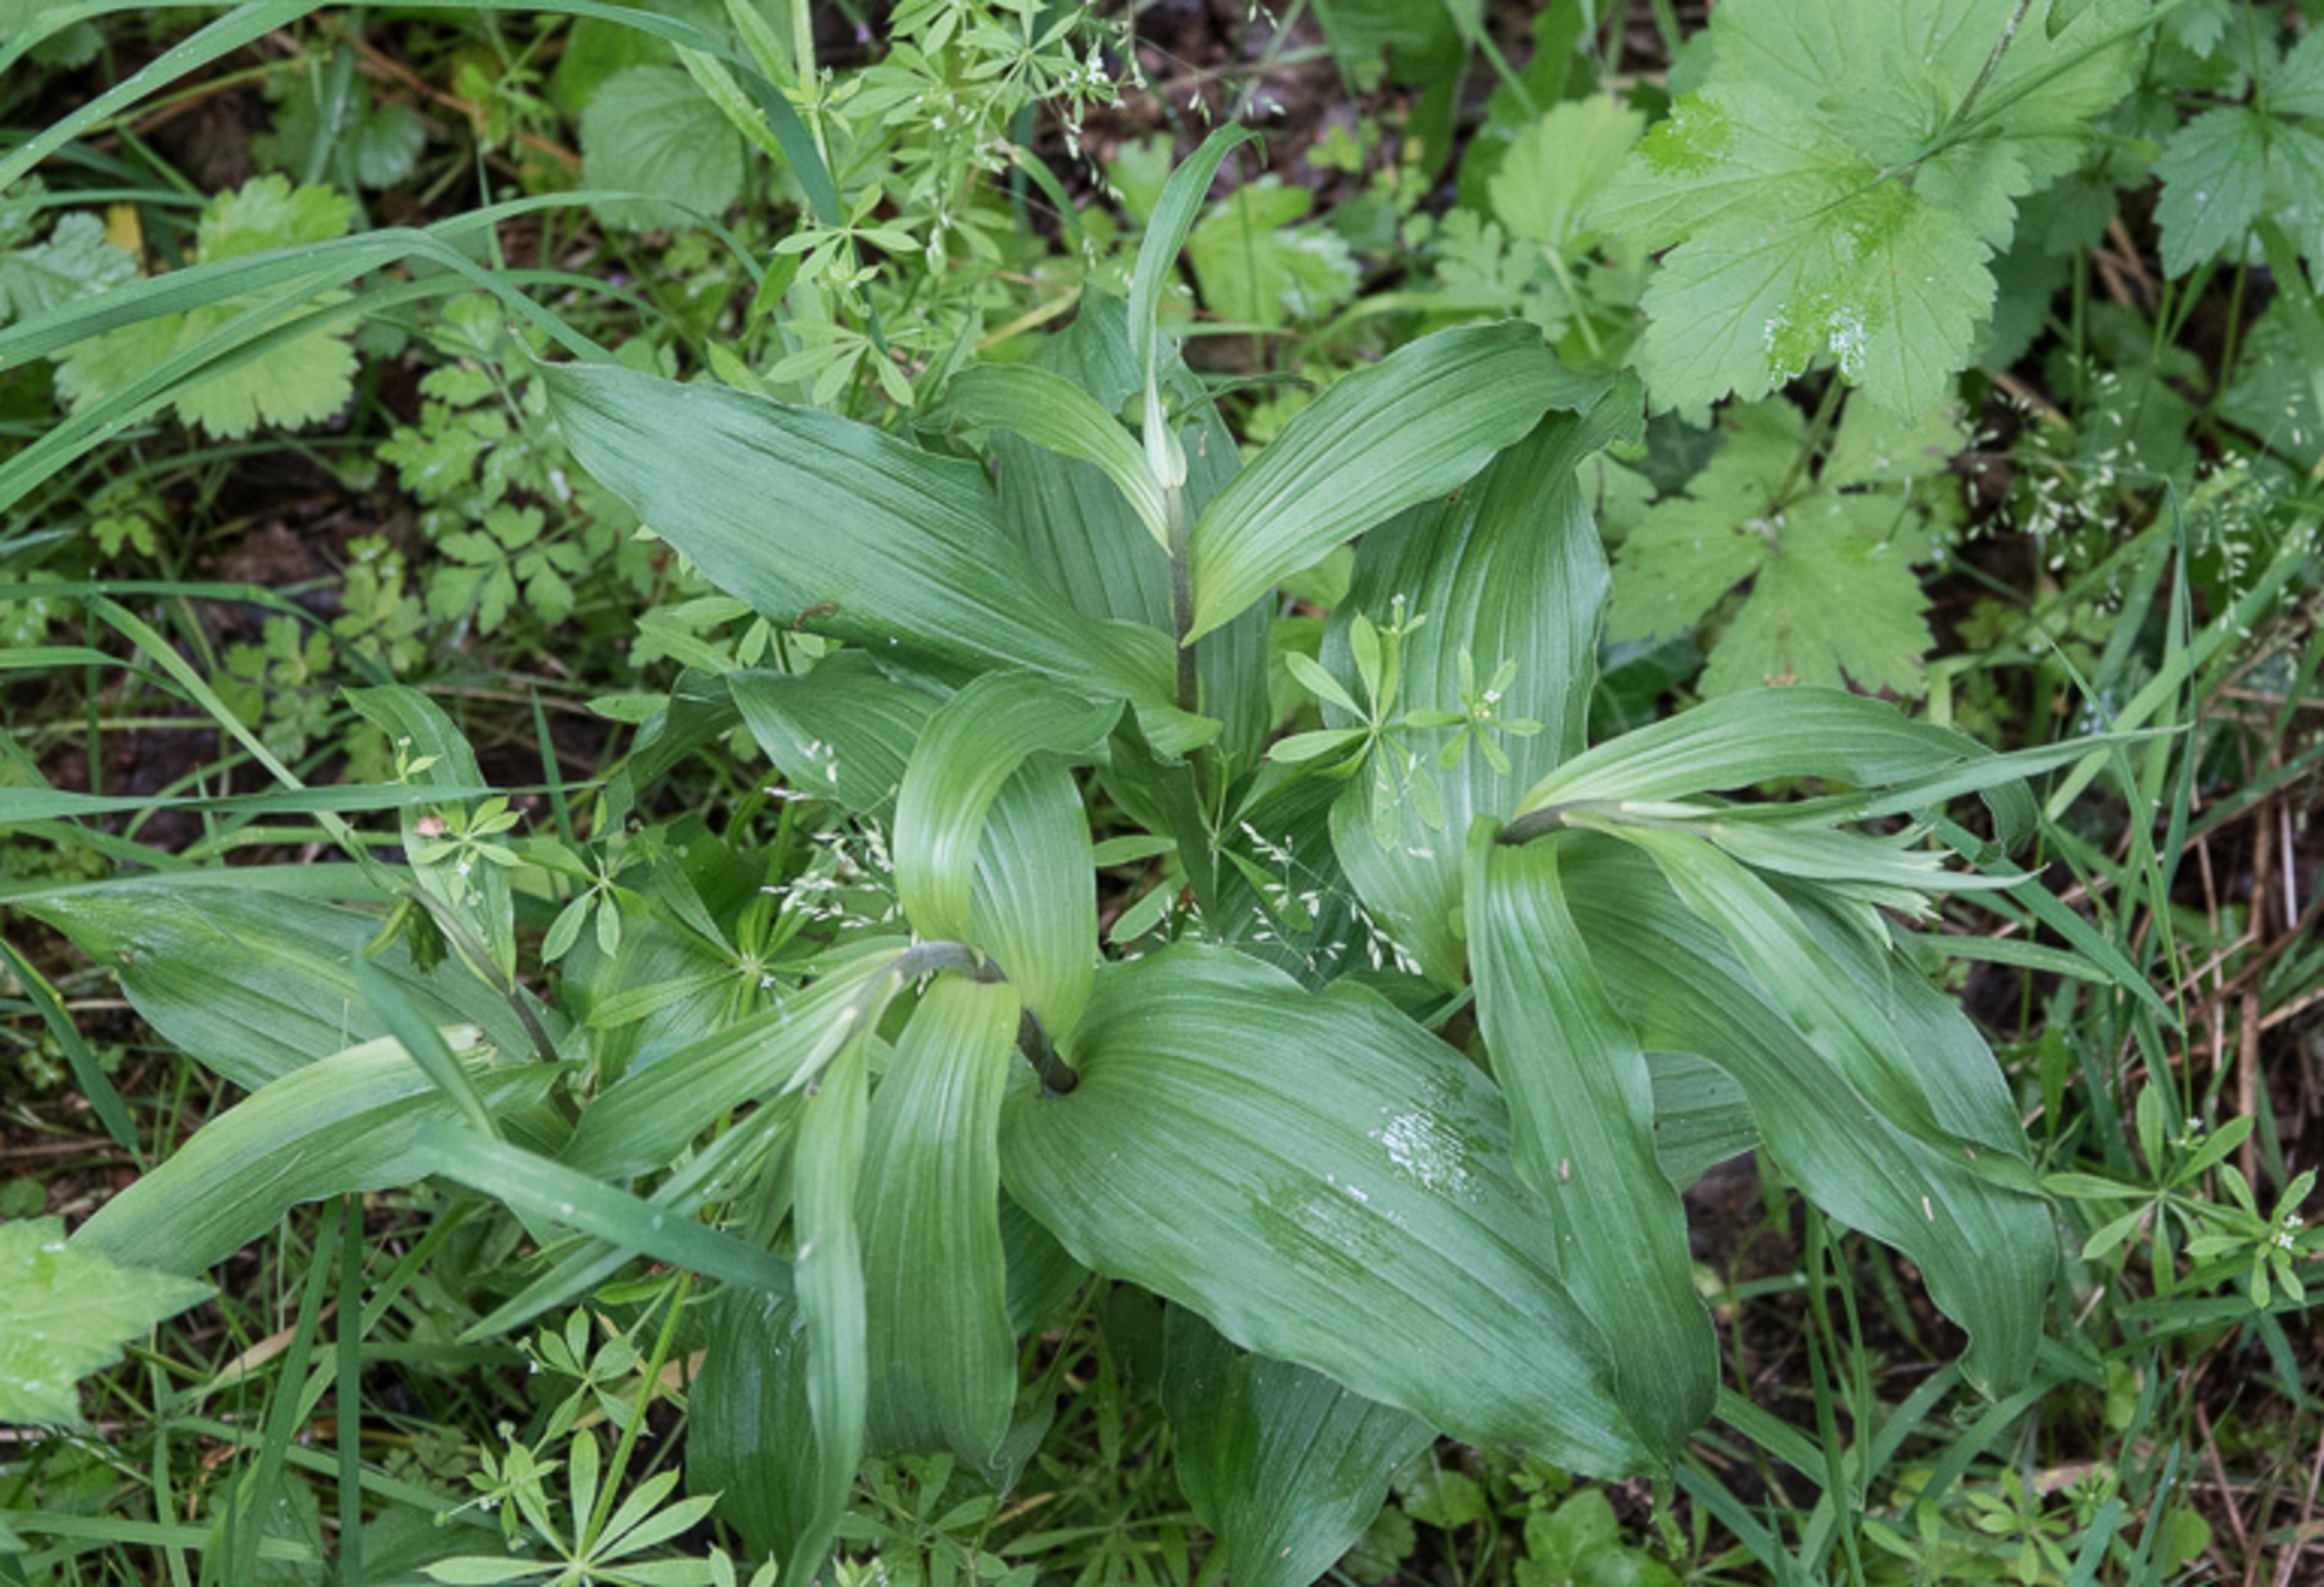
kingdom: Plantae
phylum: Tracheophyta
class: Liliopsida
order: Asparagales
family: Orchidaceae
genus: Epipactis
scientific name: Epipactis helleborine
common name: Skov-hullæbe
